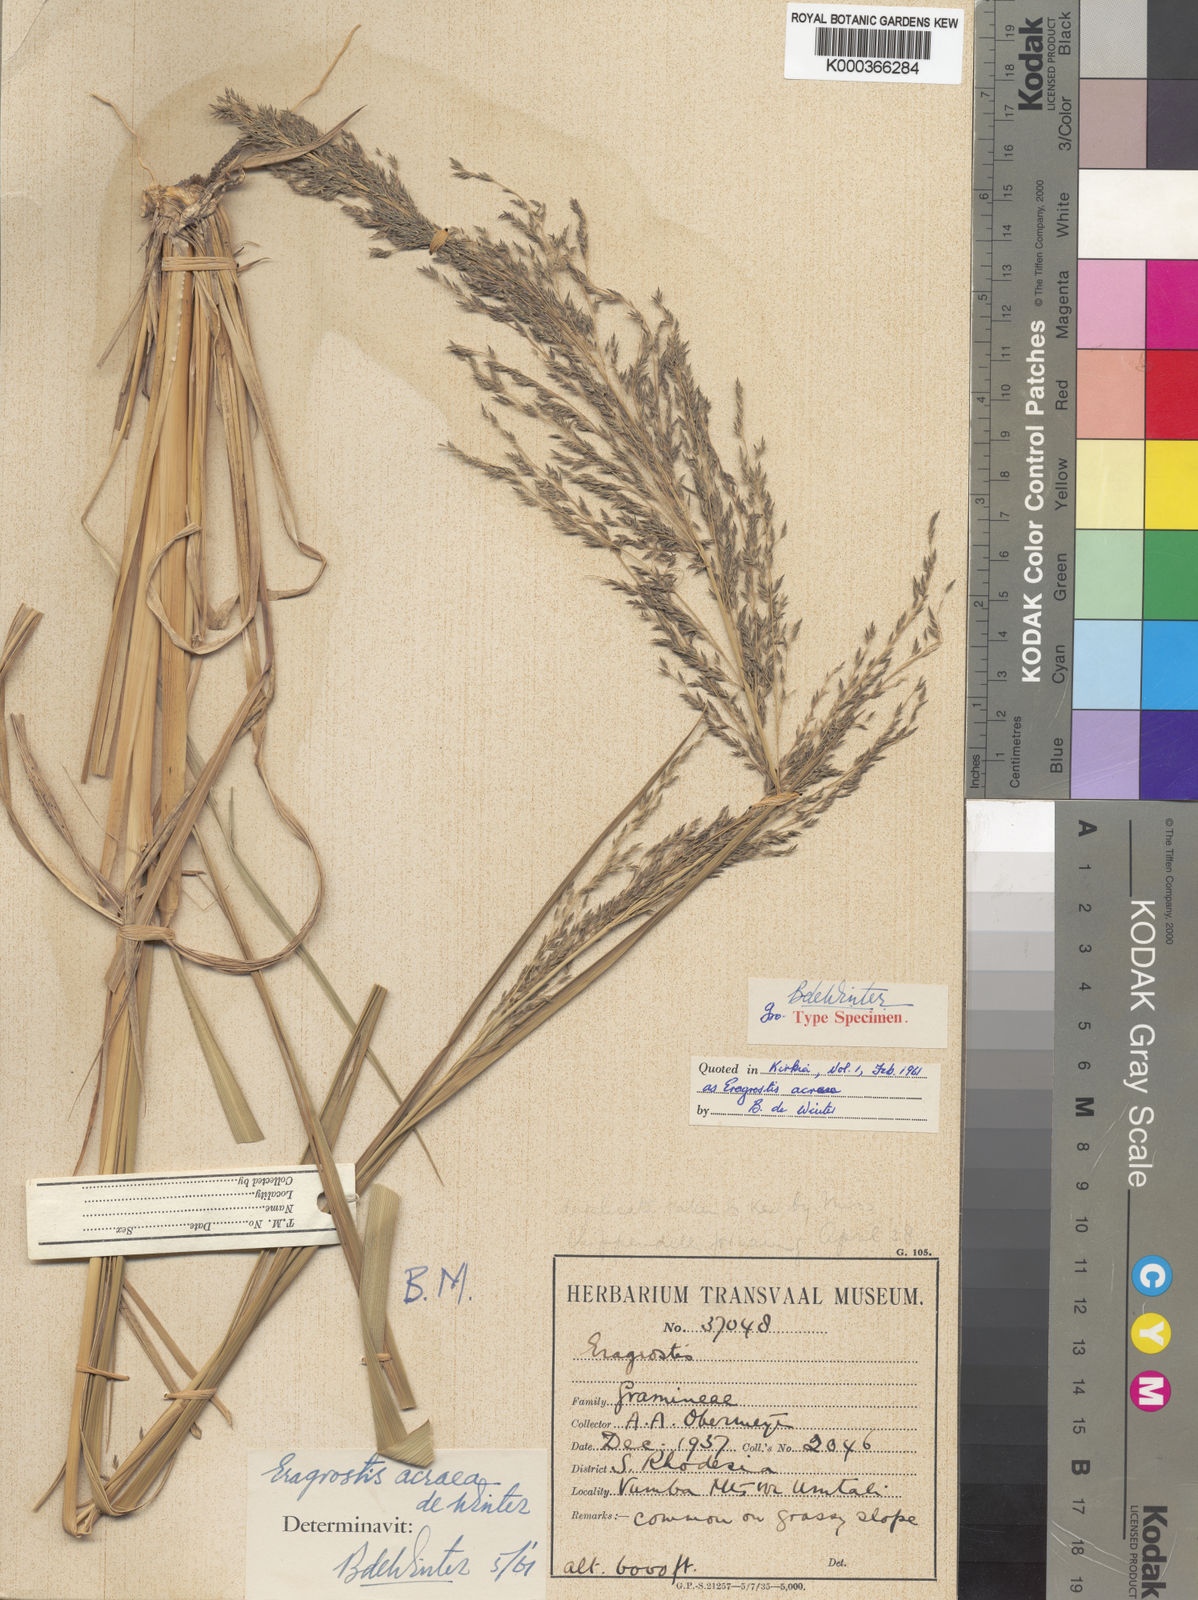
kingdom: Plantae
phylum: Tracheophyta
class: Liliopsida
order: Poales
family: Poaceae
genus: Eragrostis
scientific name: Eragrostis acraea
